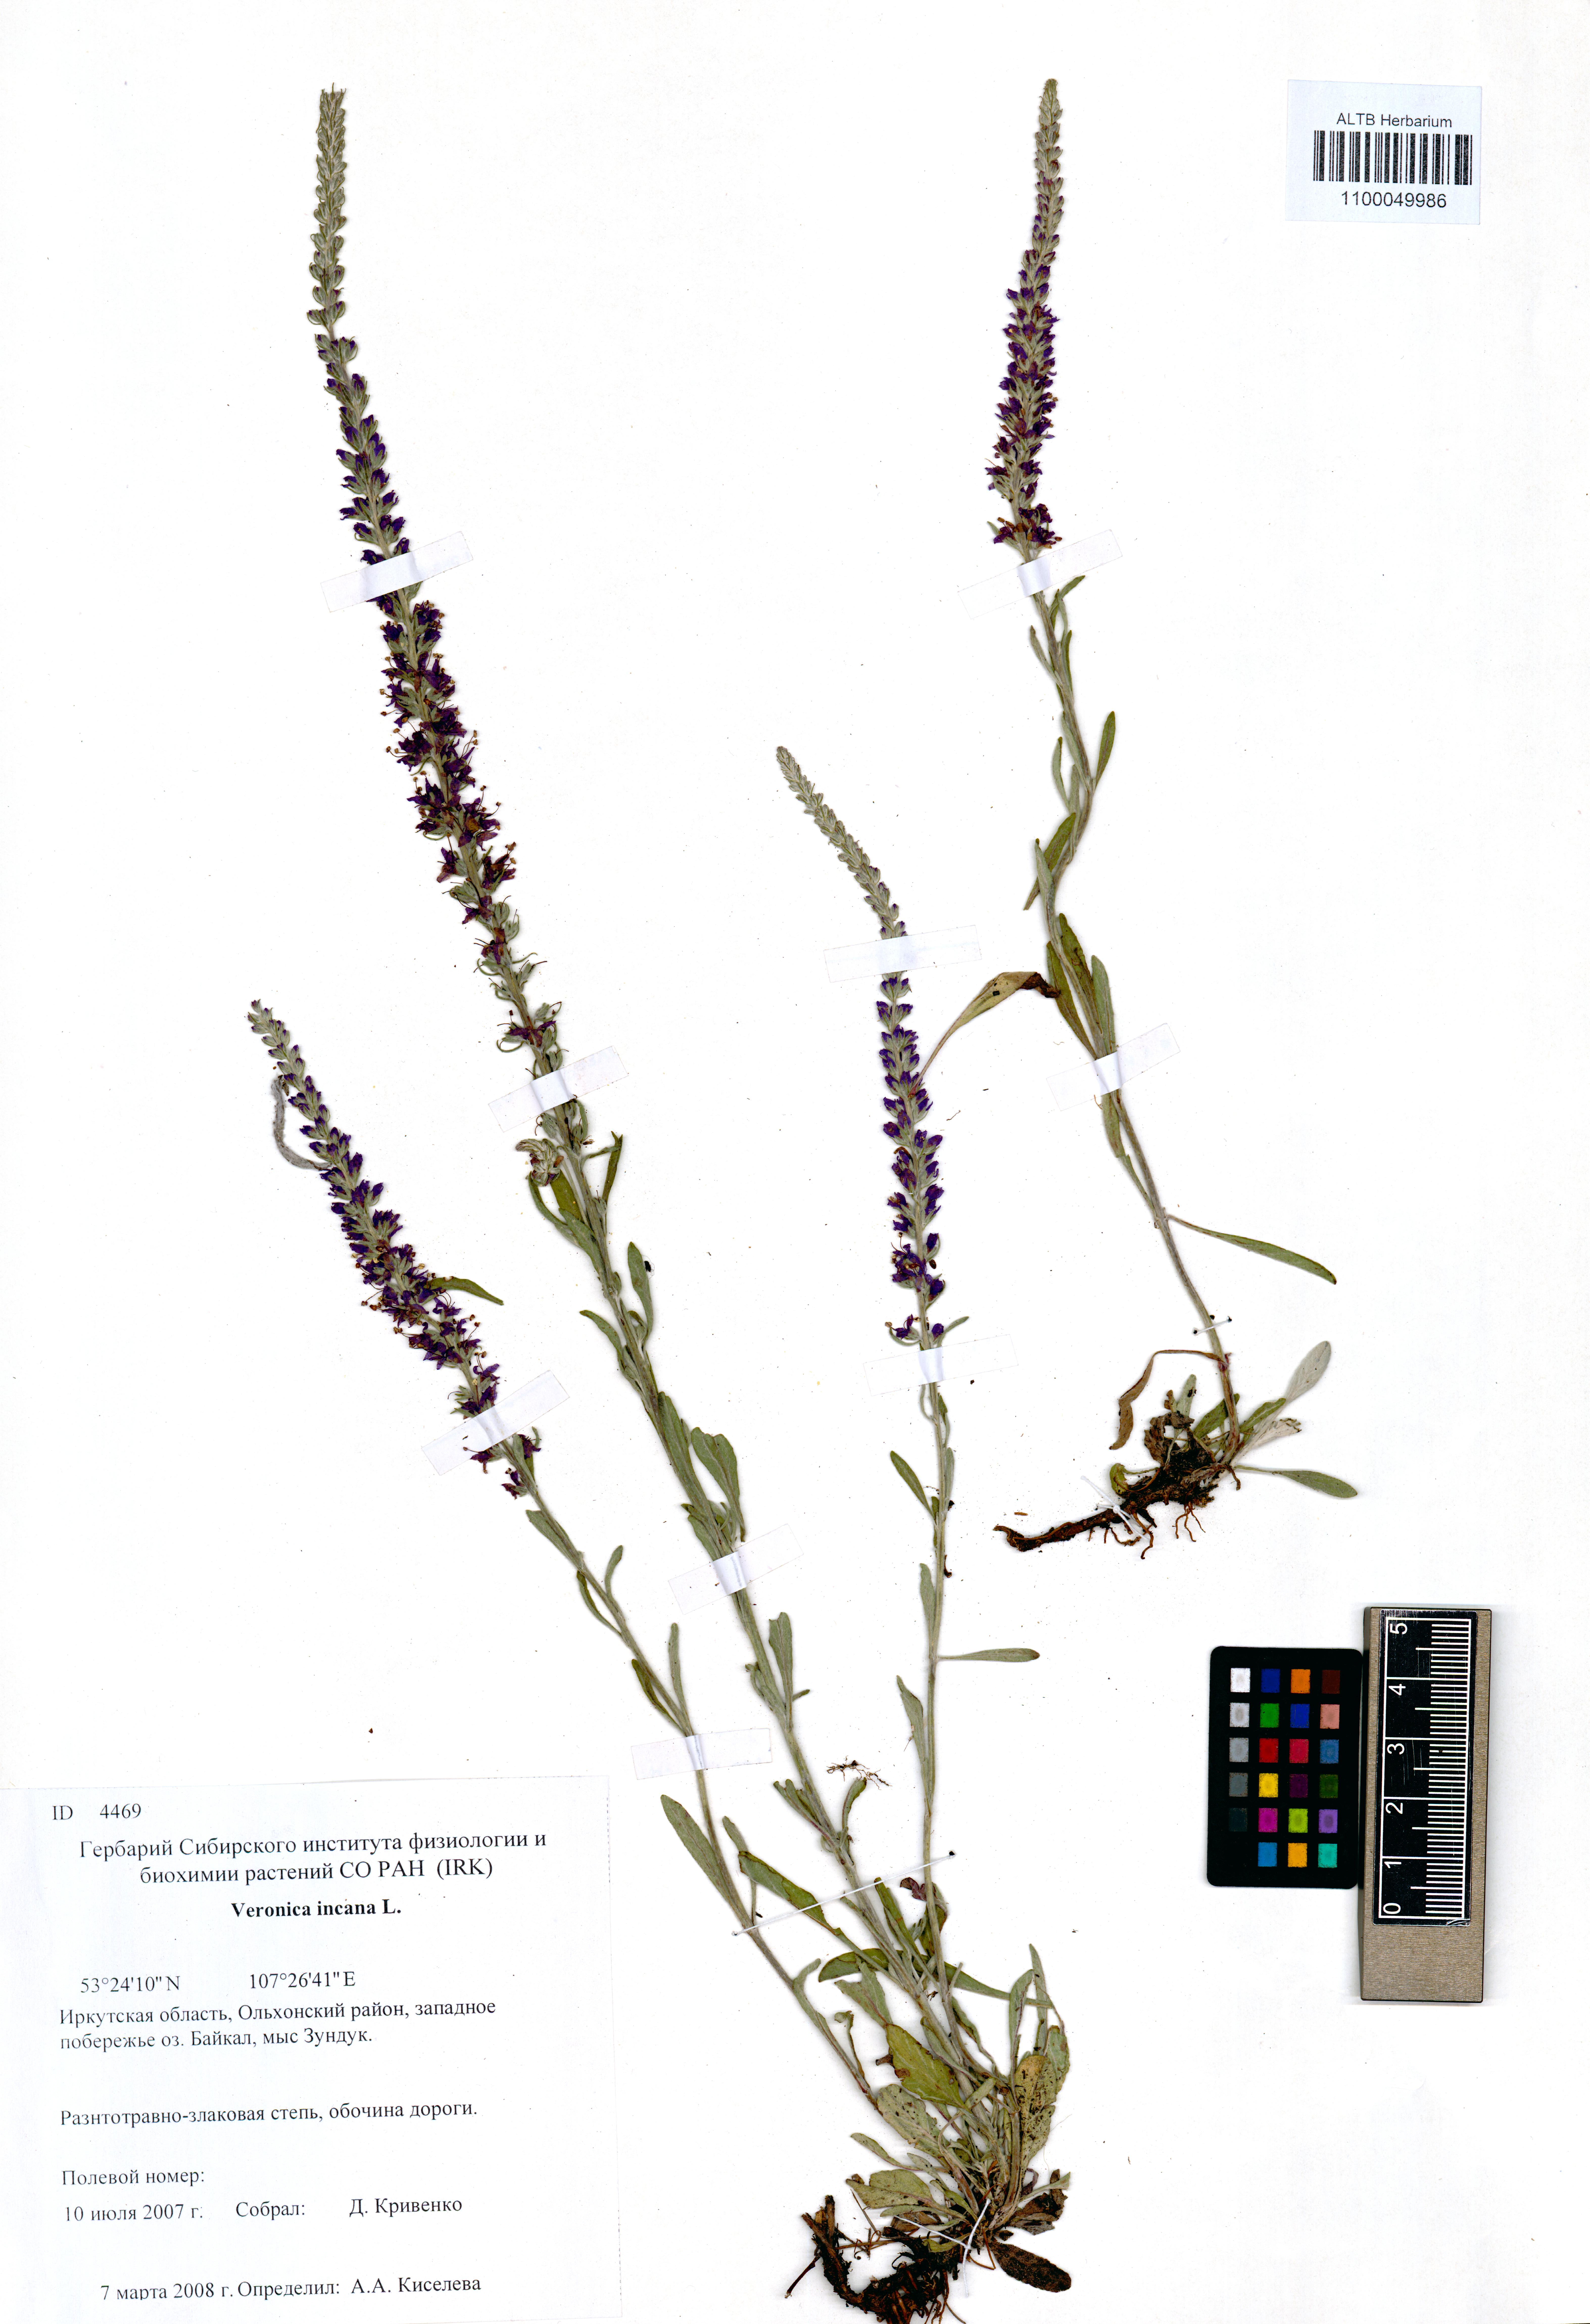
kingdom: Plantae
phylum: Tracheophyta
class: Magnoliopsida
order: Lamiales
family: Plantaginaceae
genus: Veronica
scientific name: Veronica incana
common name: Silver speedwell
